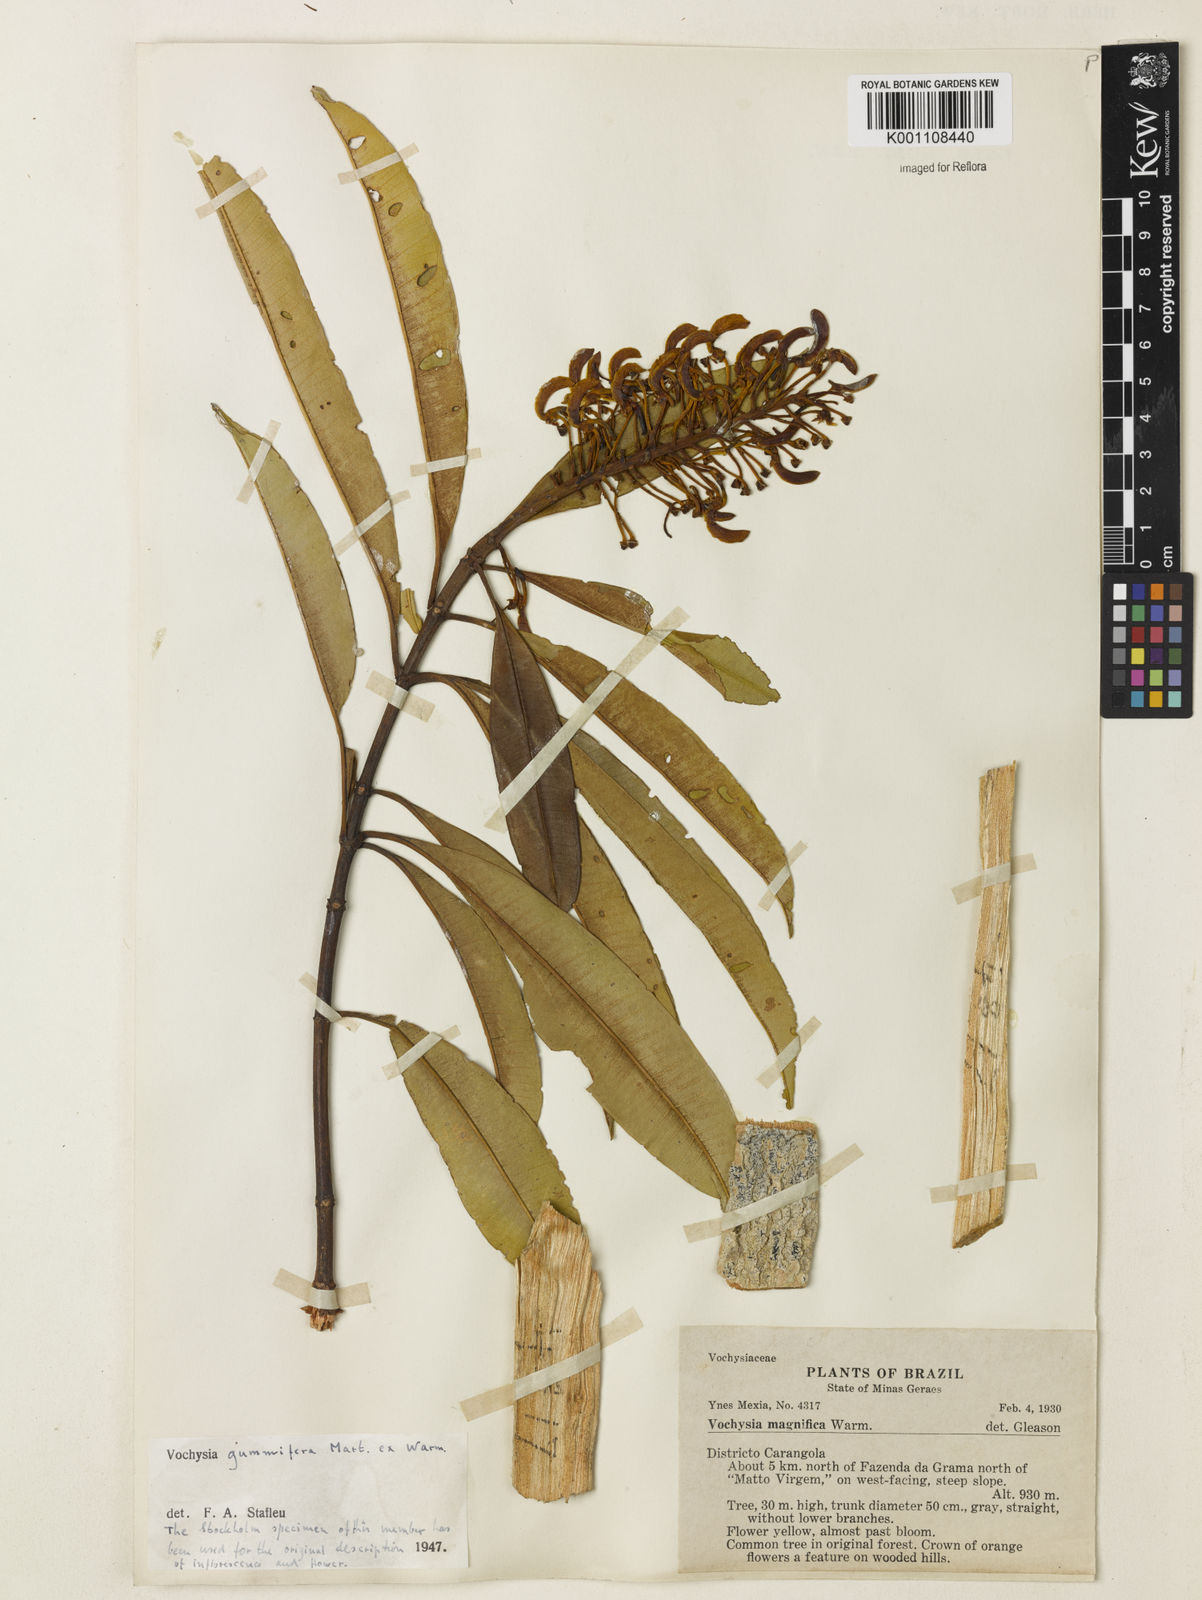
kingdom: Plantae
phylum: Tracheophyta
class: Magnoliopsida
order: Myrtales
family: Vochysiaceae
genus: Vochysia
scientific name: Vochysia gummifera
